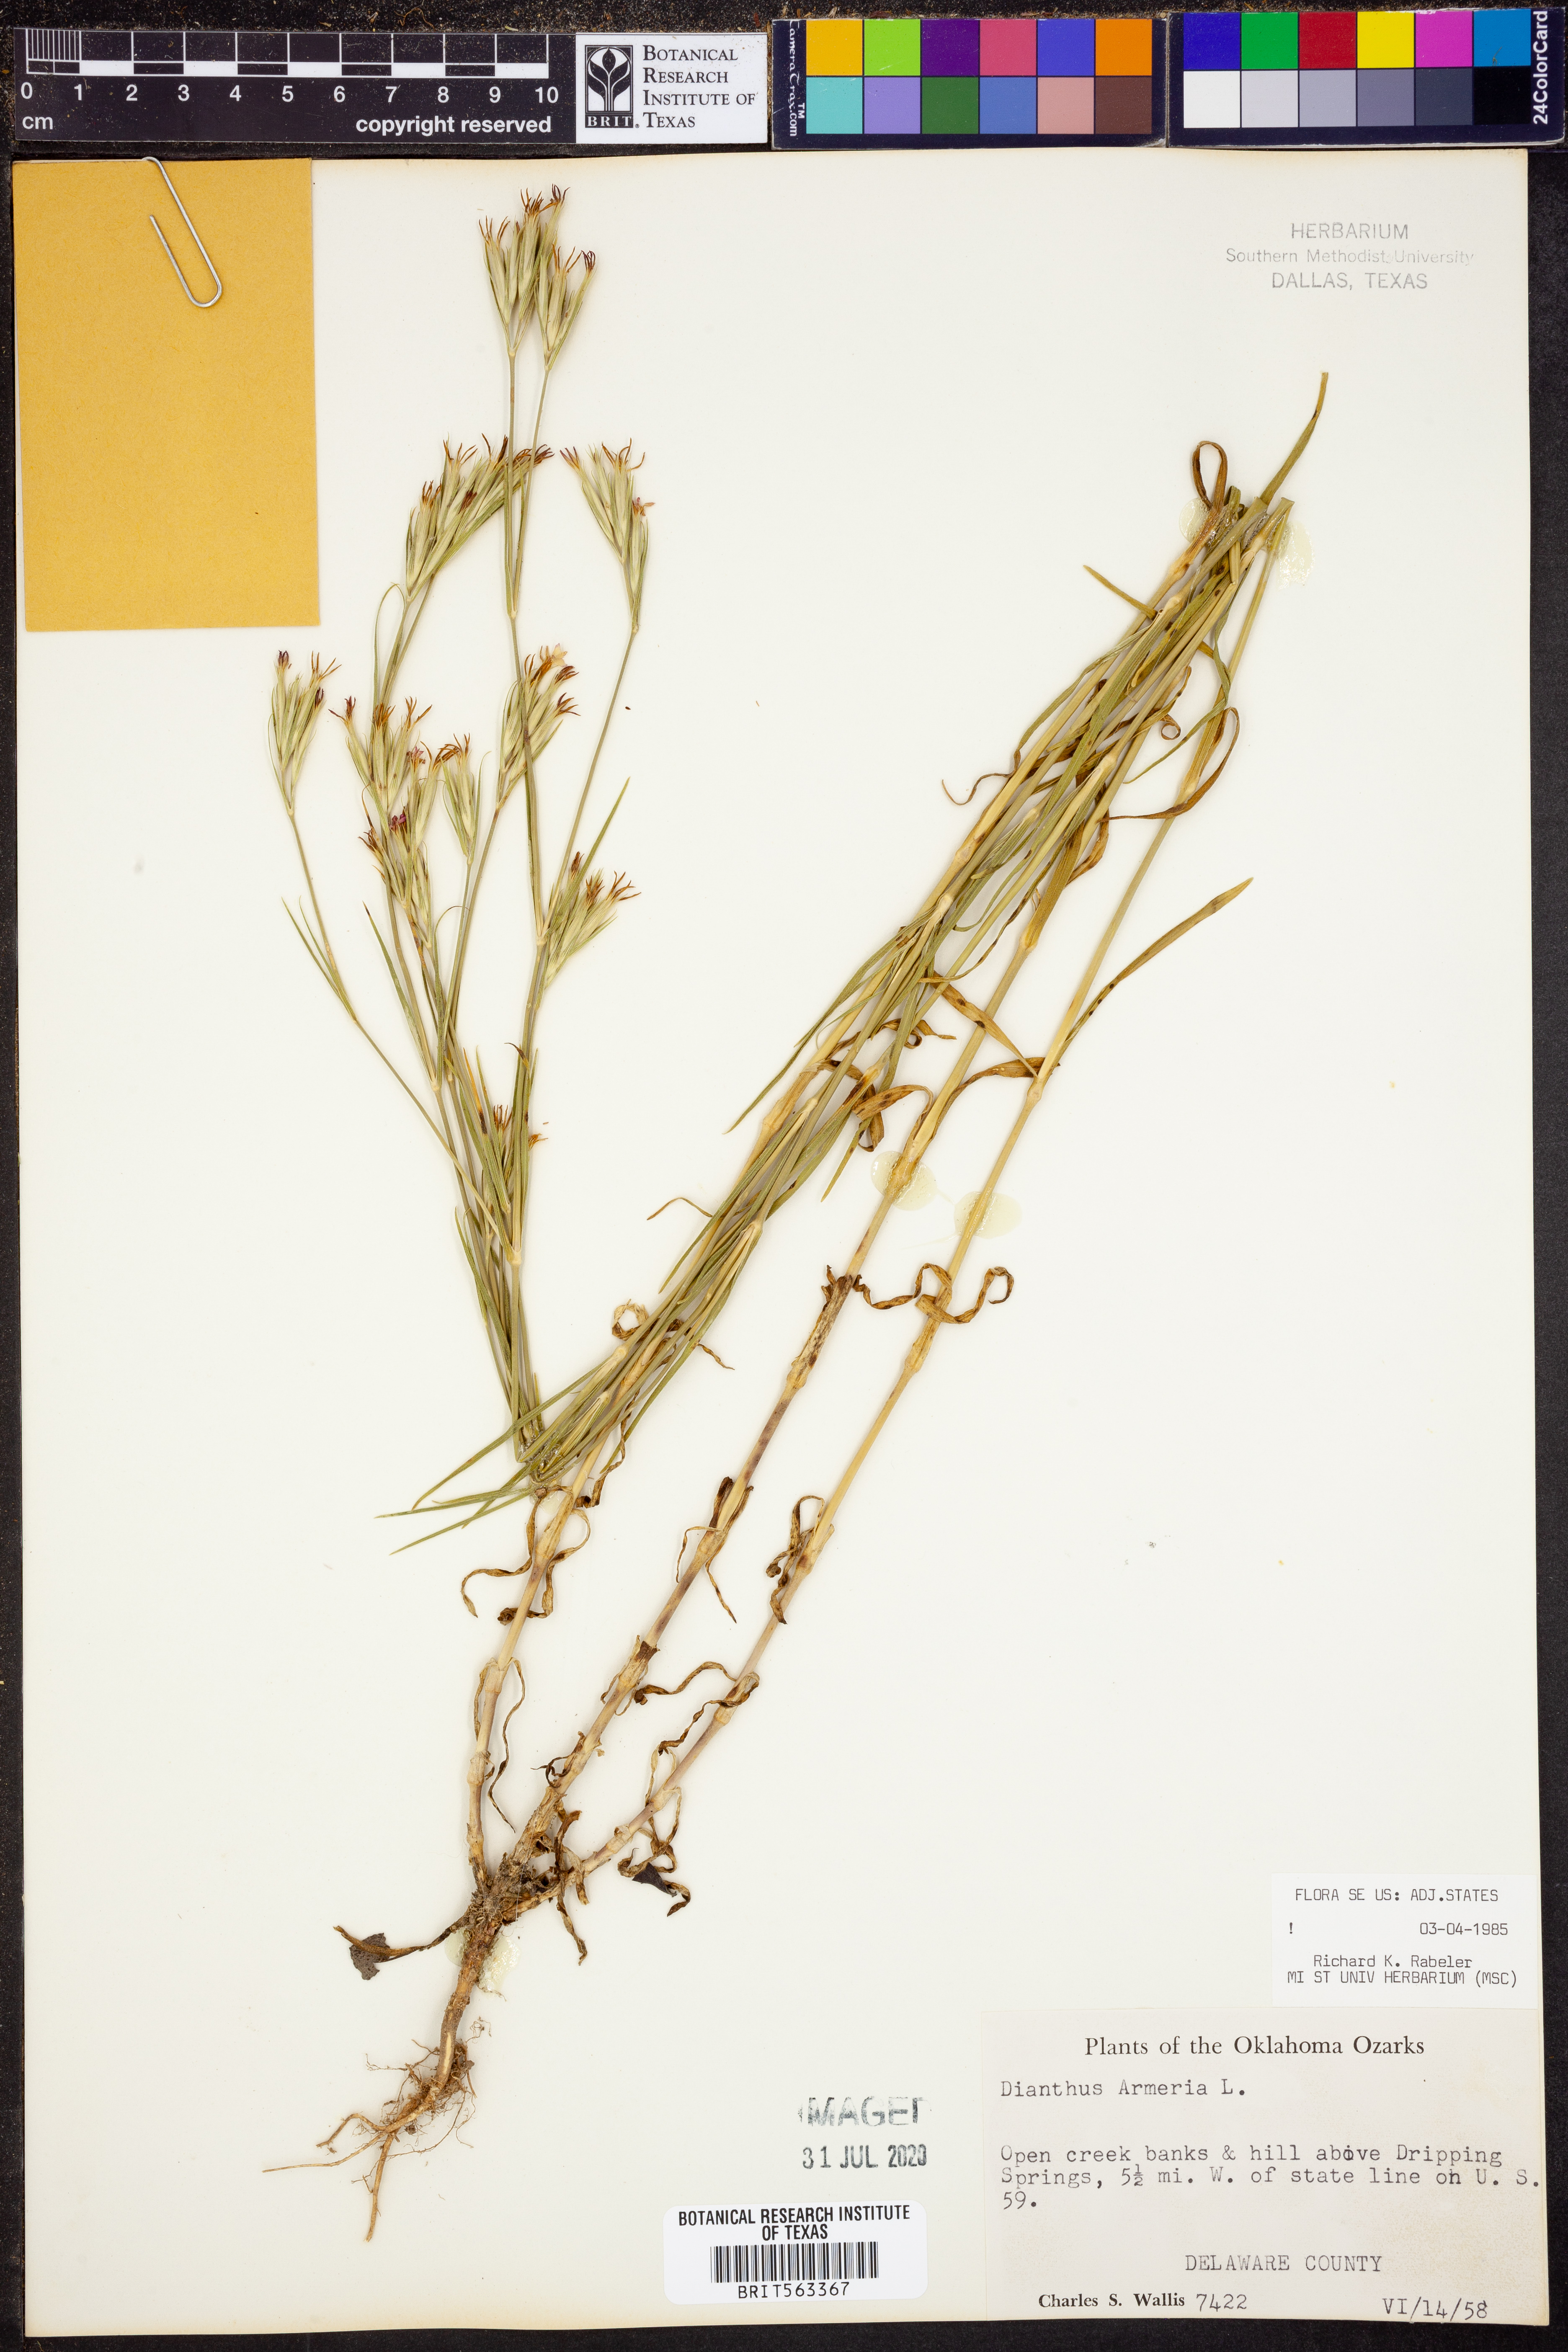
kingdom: Plantae
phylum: Tracheophyta
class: Magnoliopsida
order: Caryophyllales
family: Caryophyllaceae
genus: Dianthus
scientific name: Dianthus armeria
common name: Deptford pink
